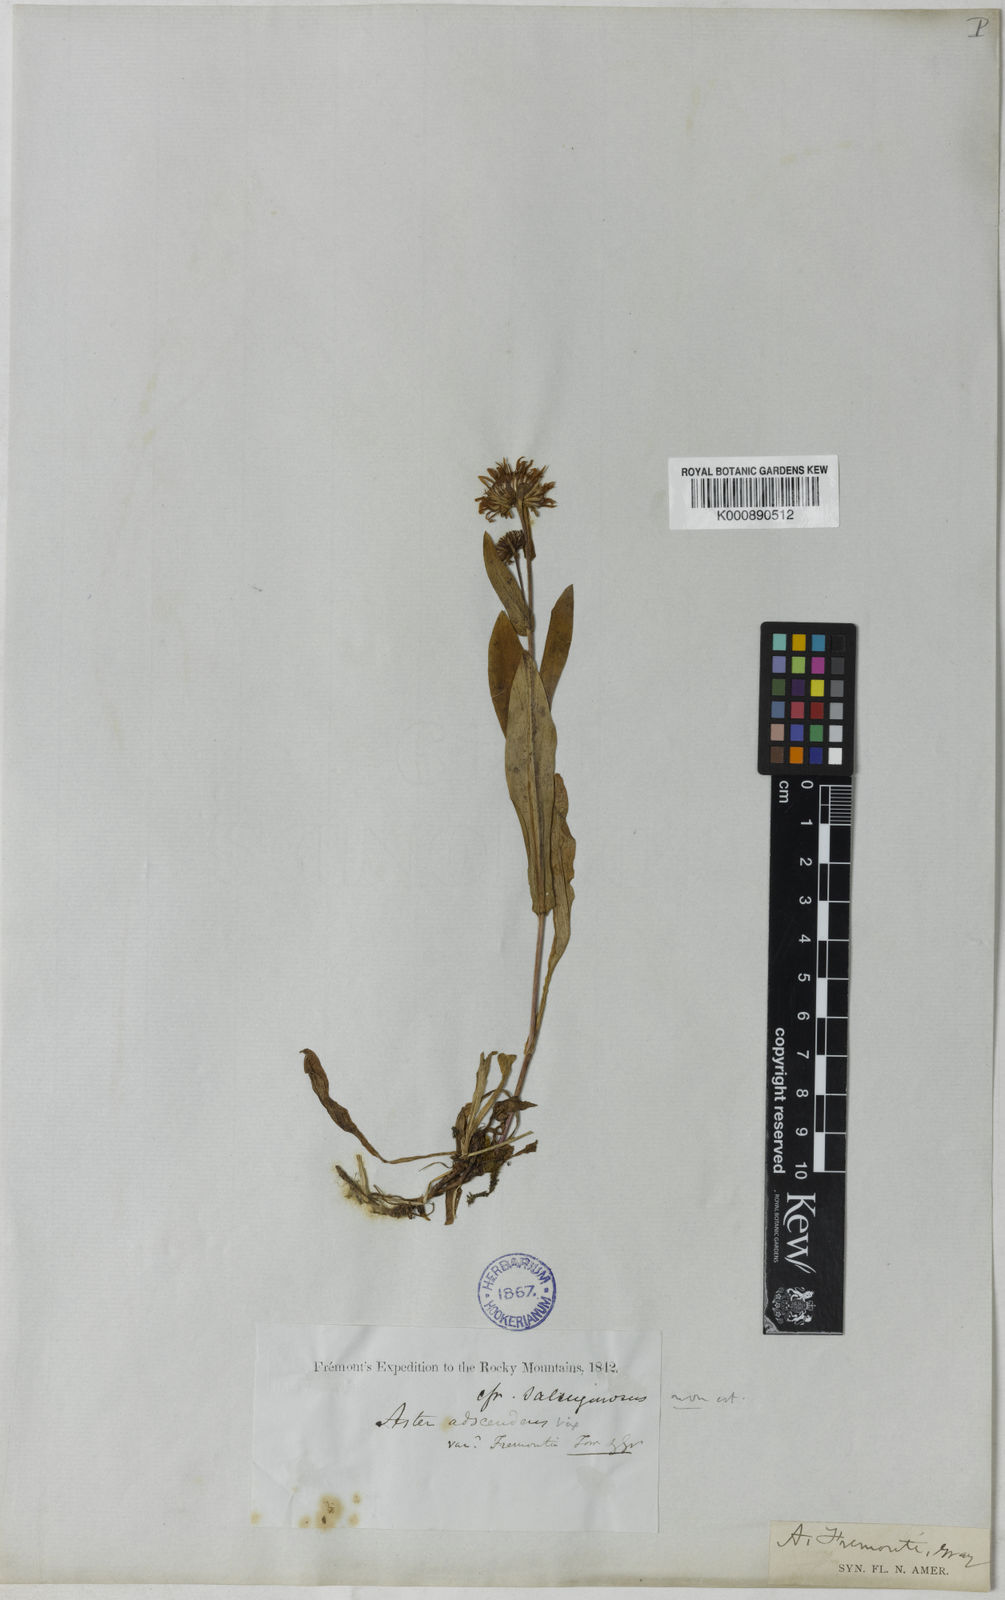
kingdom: Plantae
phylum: Tracheophyta
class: Magnoliopsida
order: Asterales
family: Asteraceae
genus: Symphyotrichum
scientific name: Symphyotrichum spathulatum
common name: Western mountain aster
